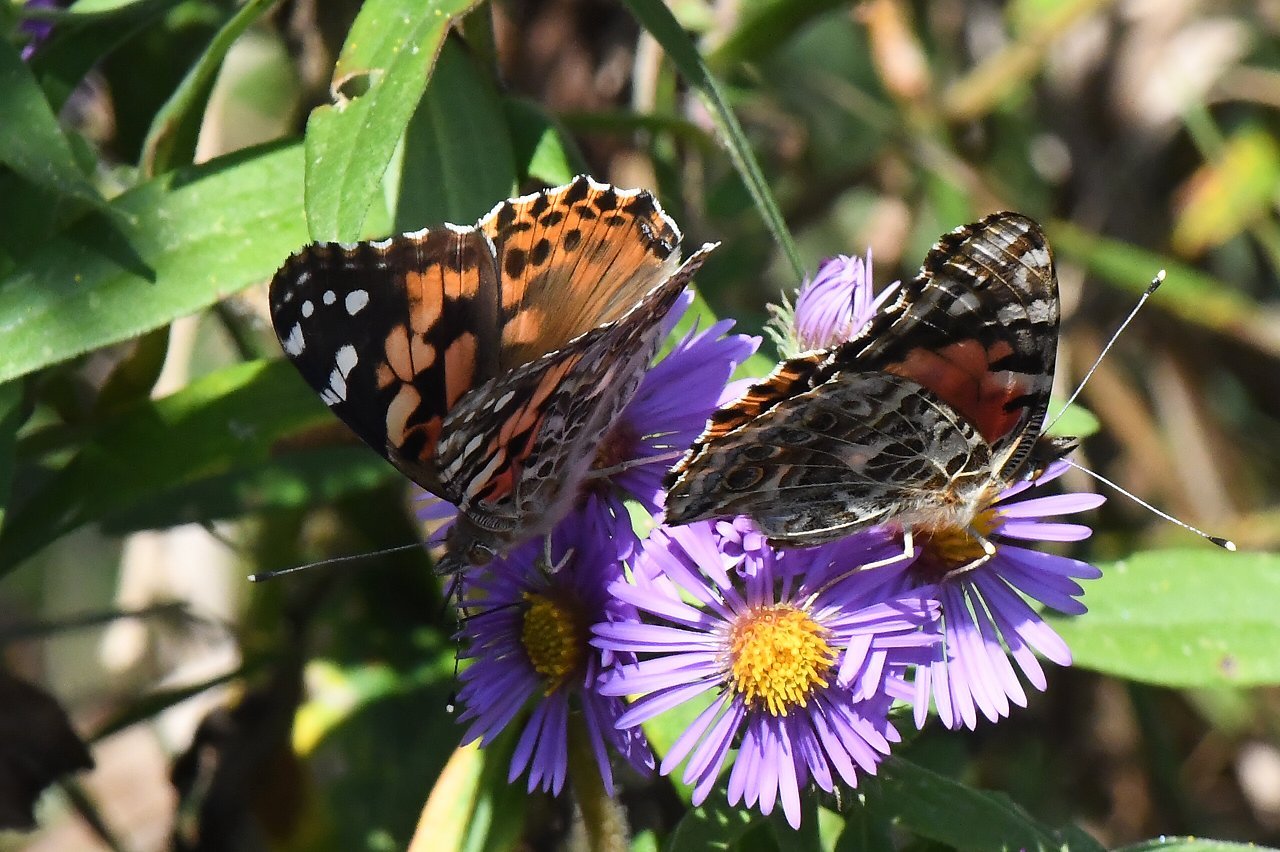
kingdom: Animalia
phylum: Arthropoda
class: Insecta
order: Lepidoptera
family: Nymphalidae
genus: Vanessa
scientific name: Vanessa cardui
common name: Painted Lady
